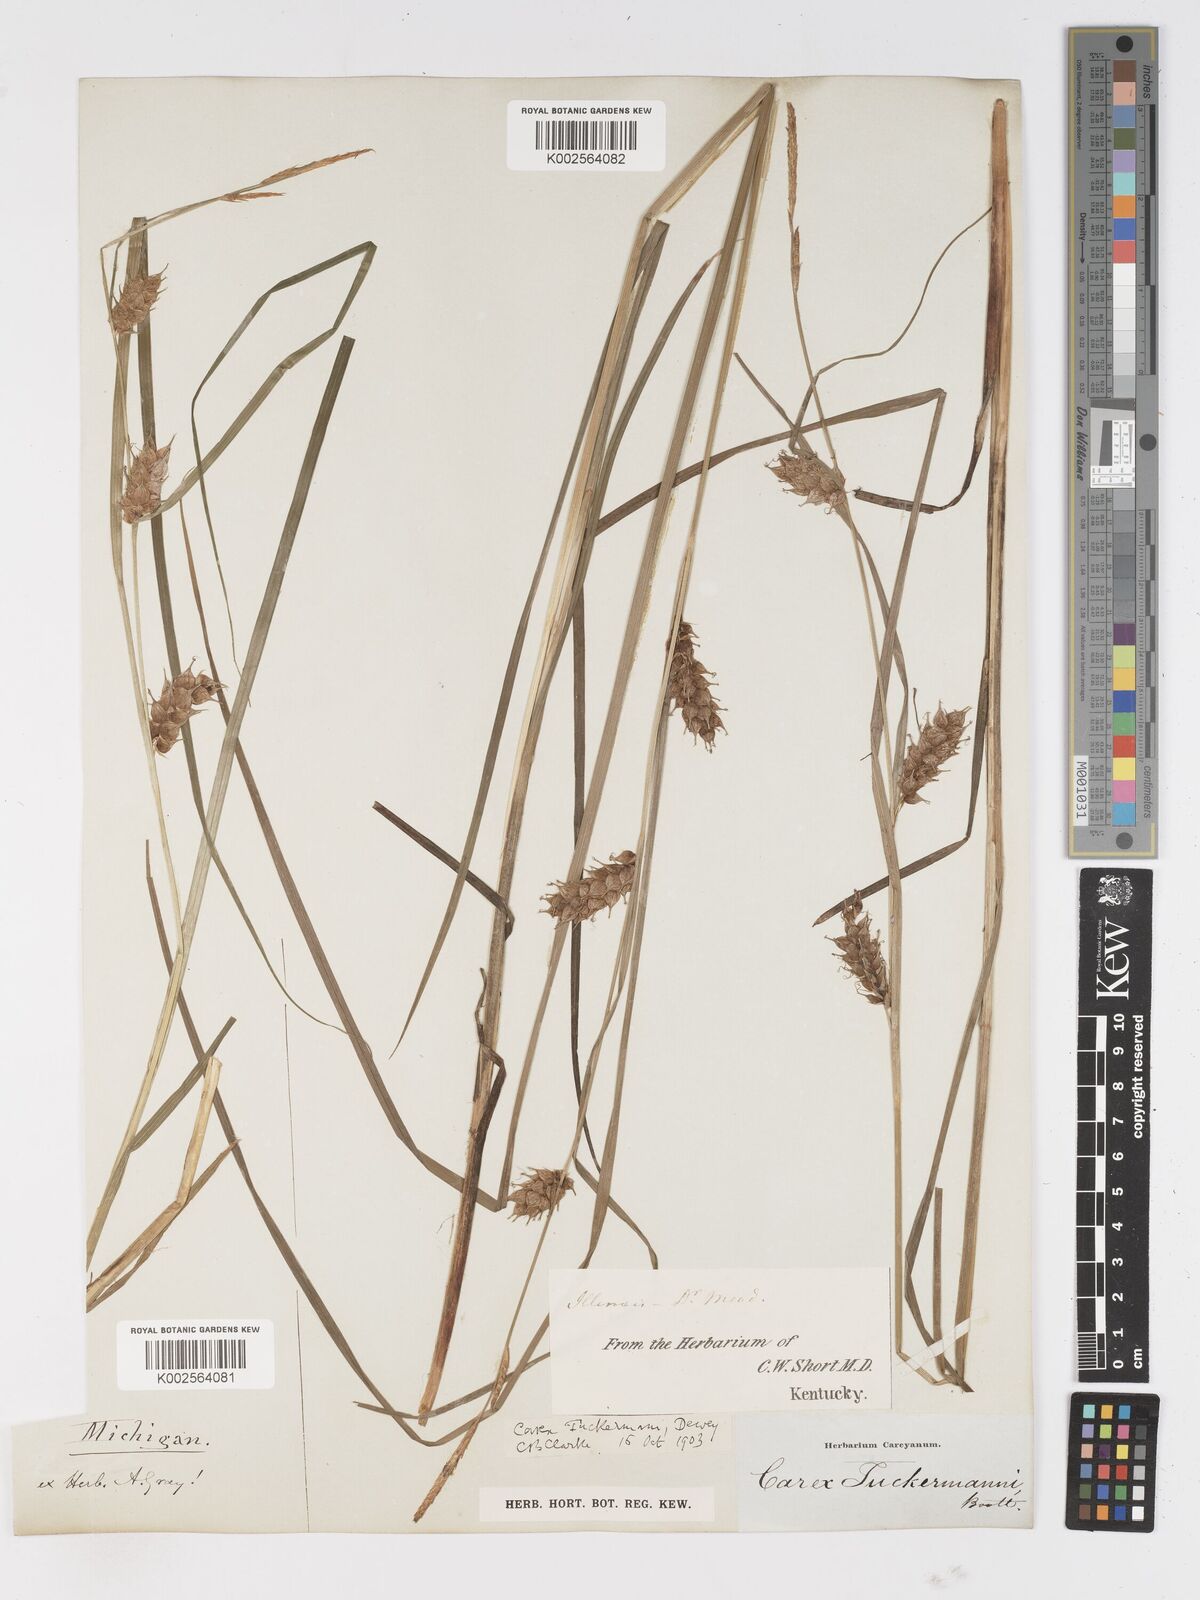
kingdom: Plantae
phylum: Tracheophyta
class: Liliopsida
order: Poales
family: Cyperaceae
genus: Carex
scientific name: Carex tuckermanii
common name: Tuckerman's sedge
